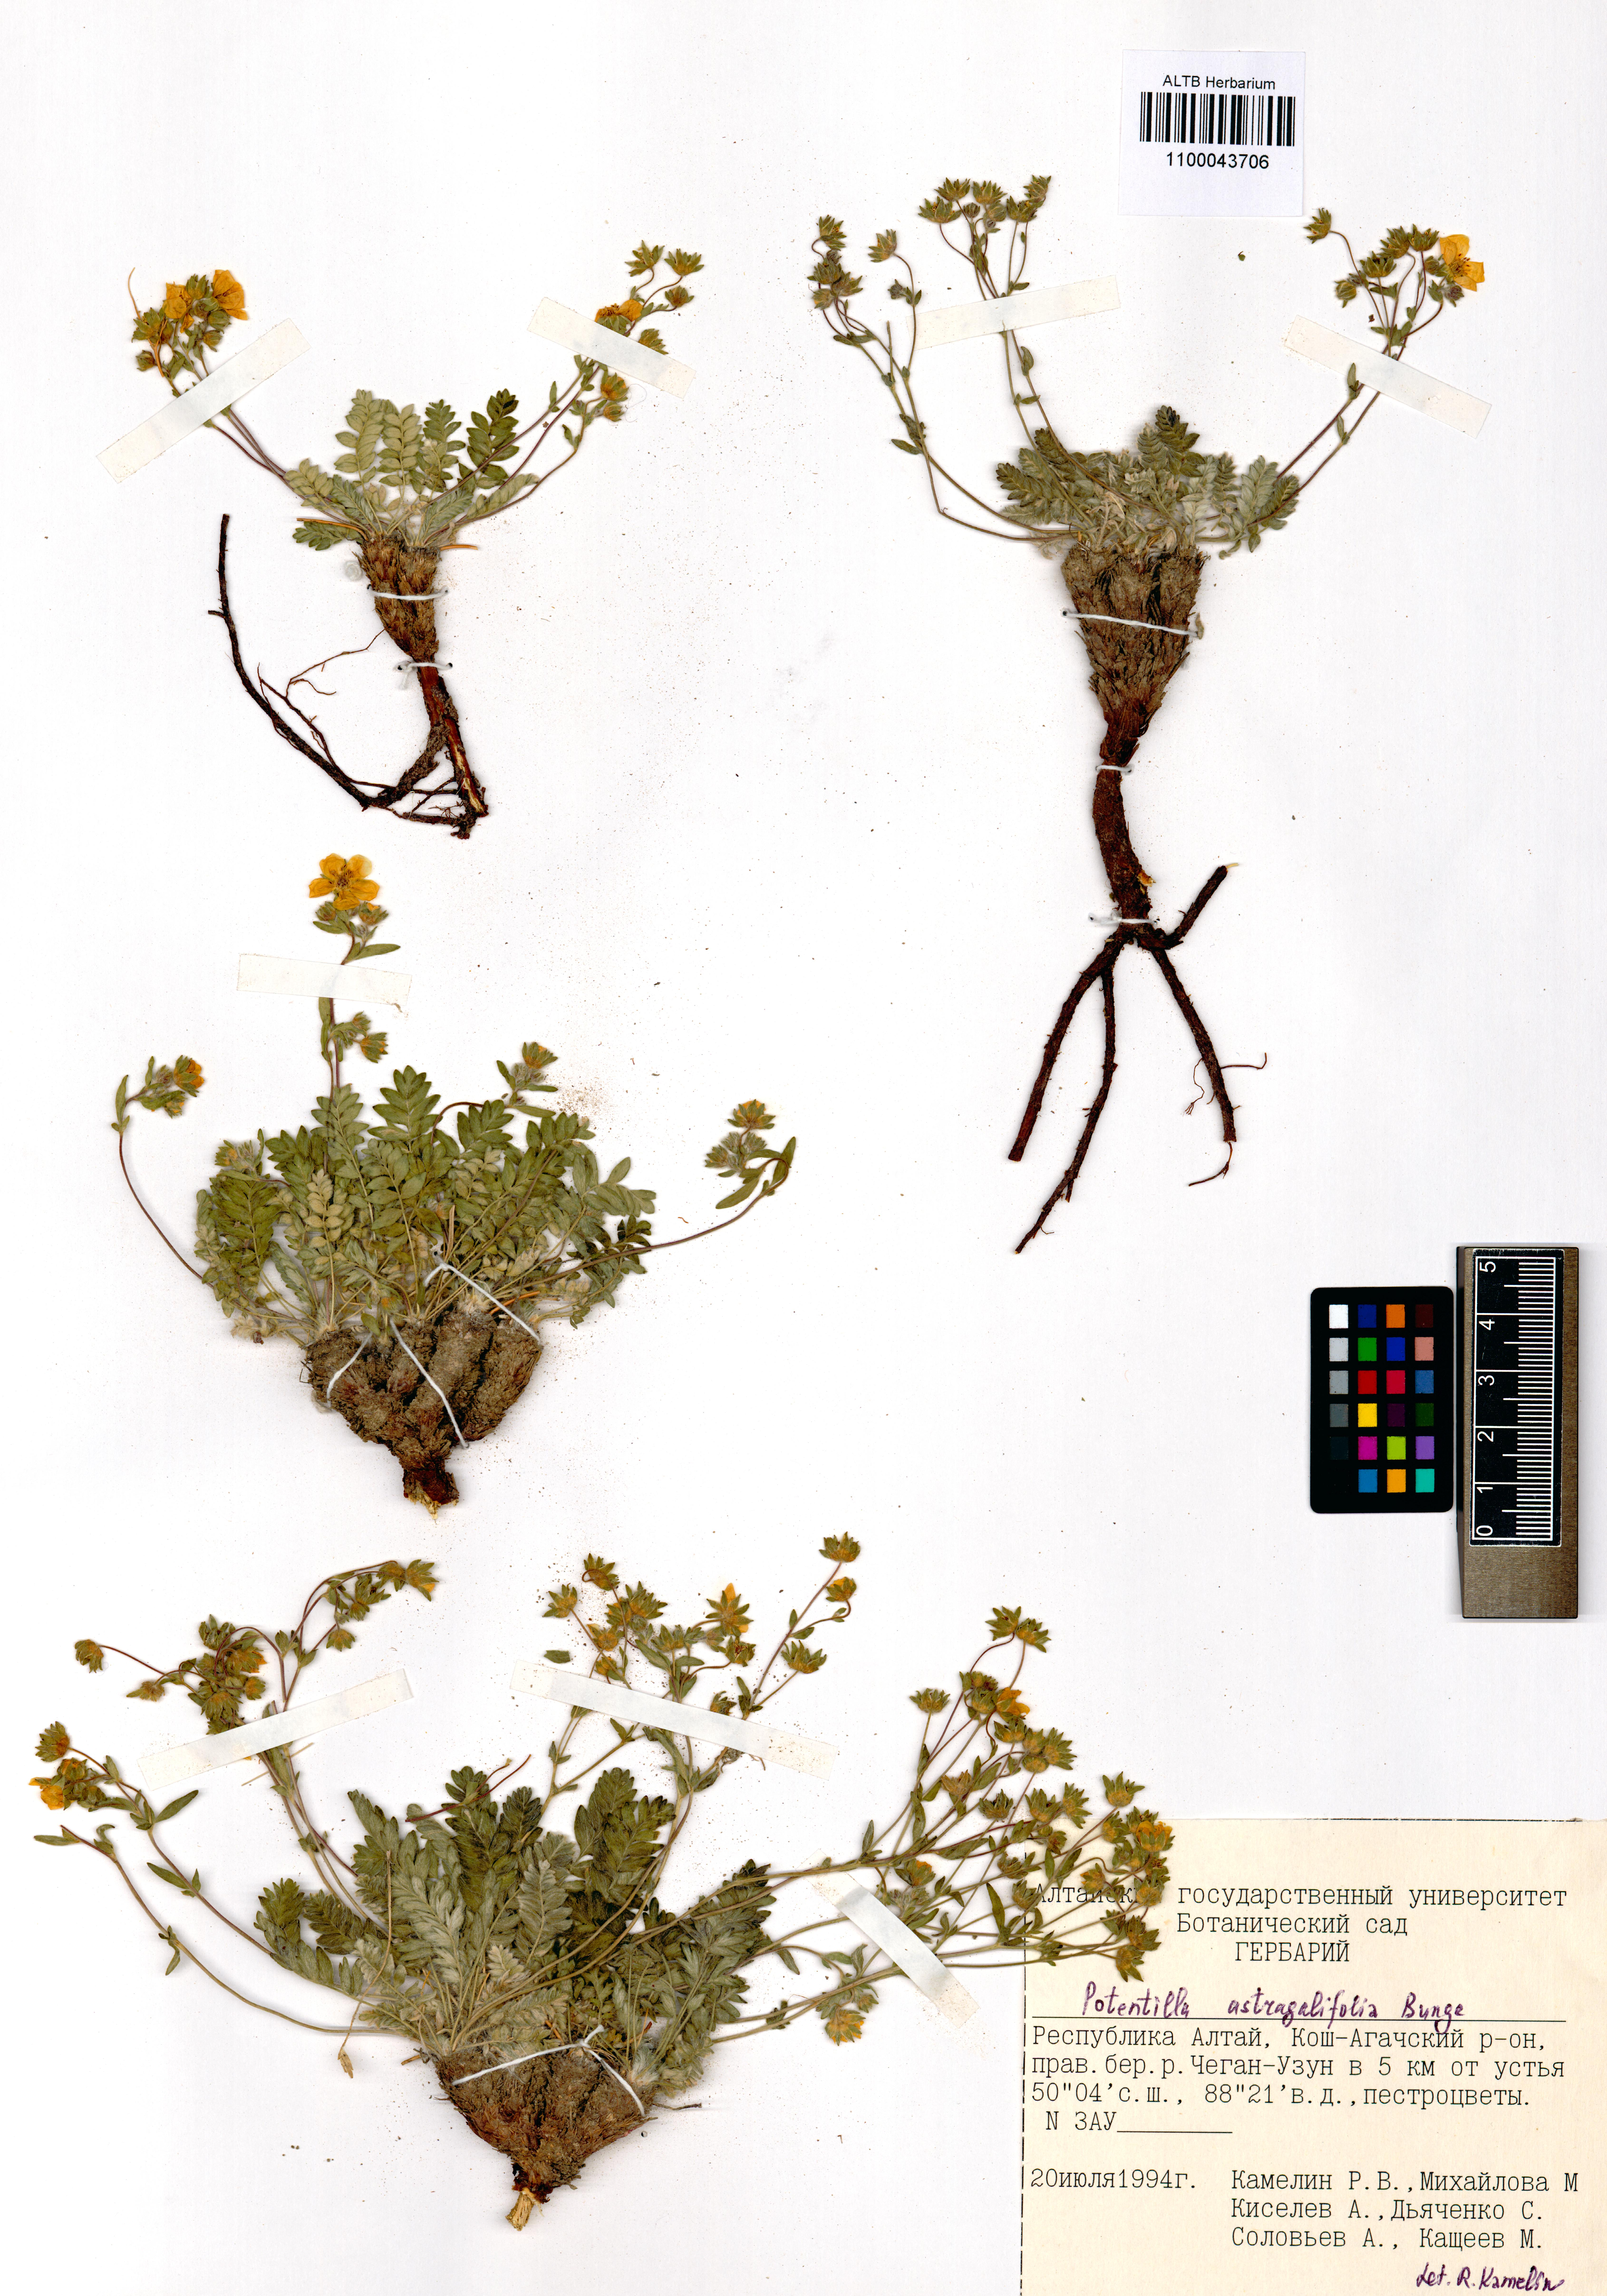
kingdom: Plantae
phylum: Tracheophyta
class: Magnoliopsida
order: Rosales
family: Rosaceae
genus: Potentilla
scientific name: Potentilla astragalifolia
